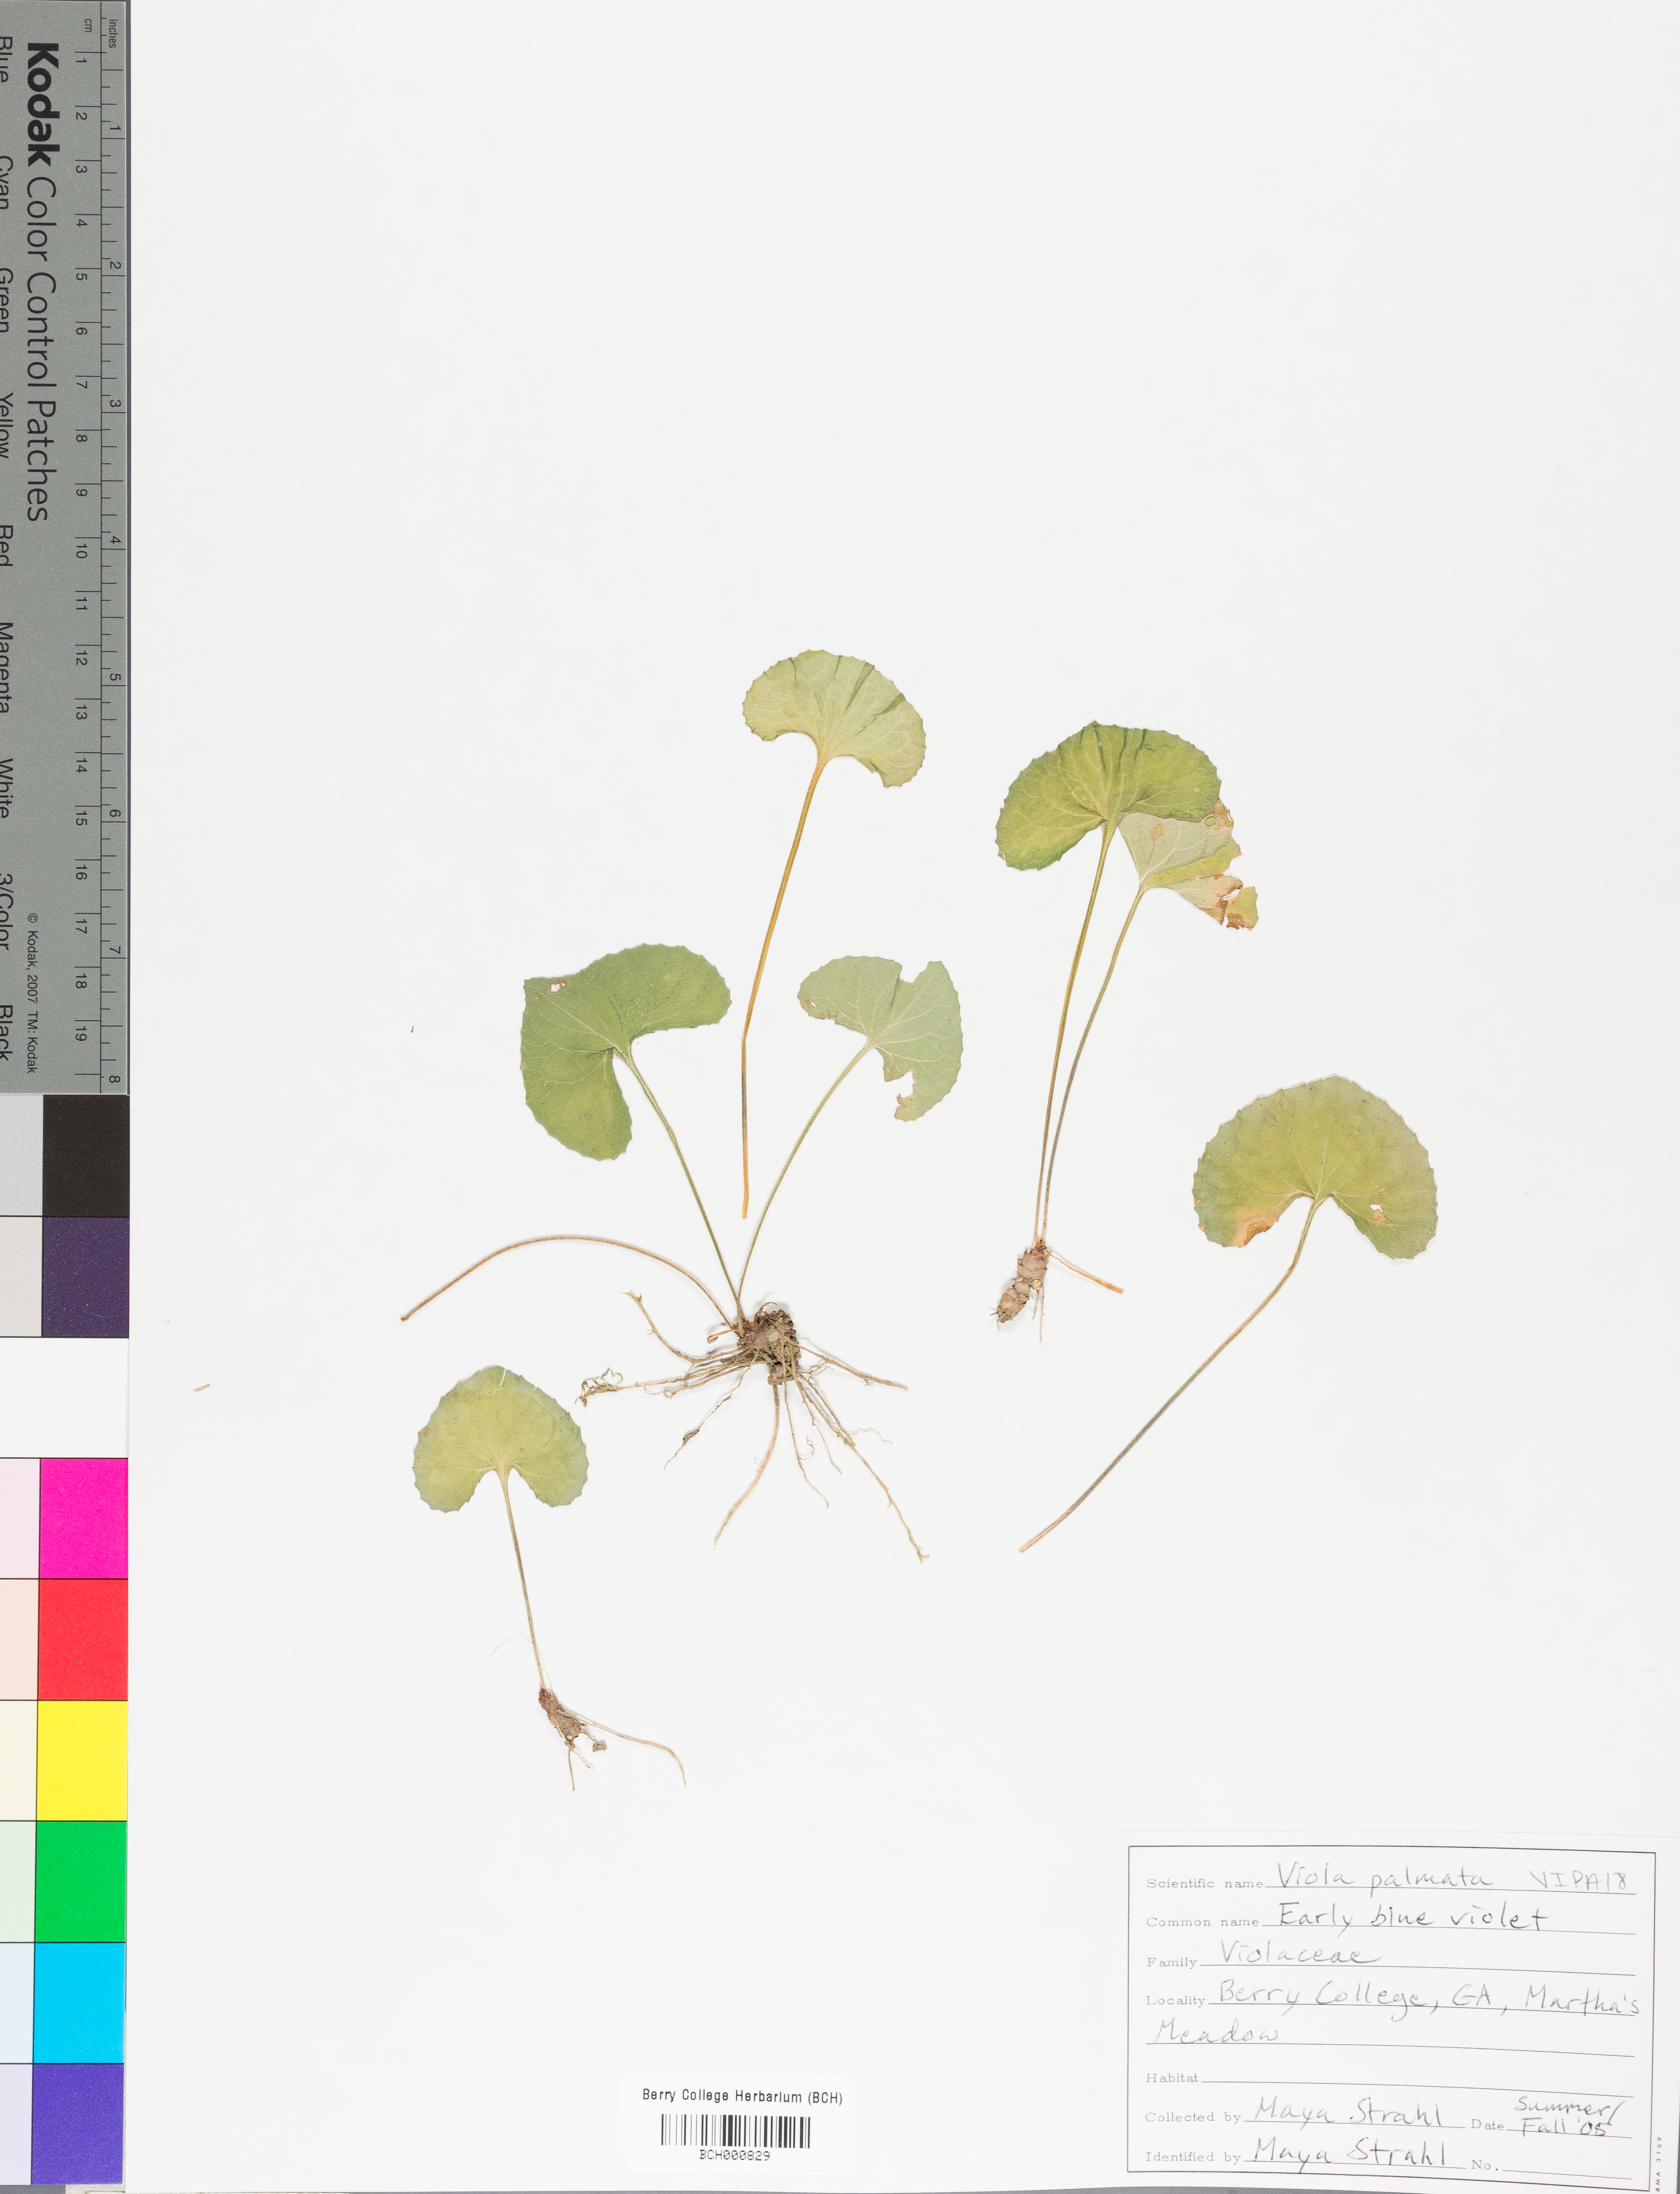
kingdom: Plantae
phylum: Tracheophyta
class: Magnoliopsida
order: Malpighiales
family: Violaceae
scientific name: Violaceae
